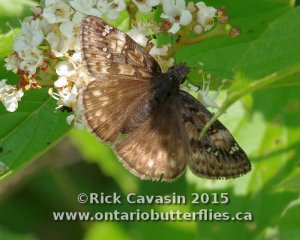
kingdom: Animalia
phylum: Arthropoda
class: Insecta
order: Lepidoptera
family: Hesperiidae
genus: Gesta
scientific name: Gesta
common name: Juvenal's Duskywing
